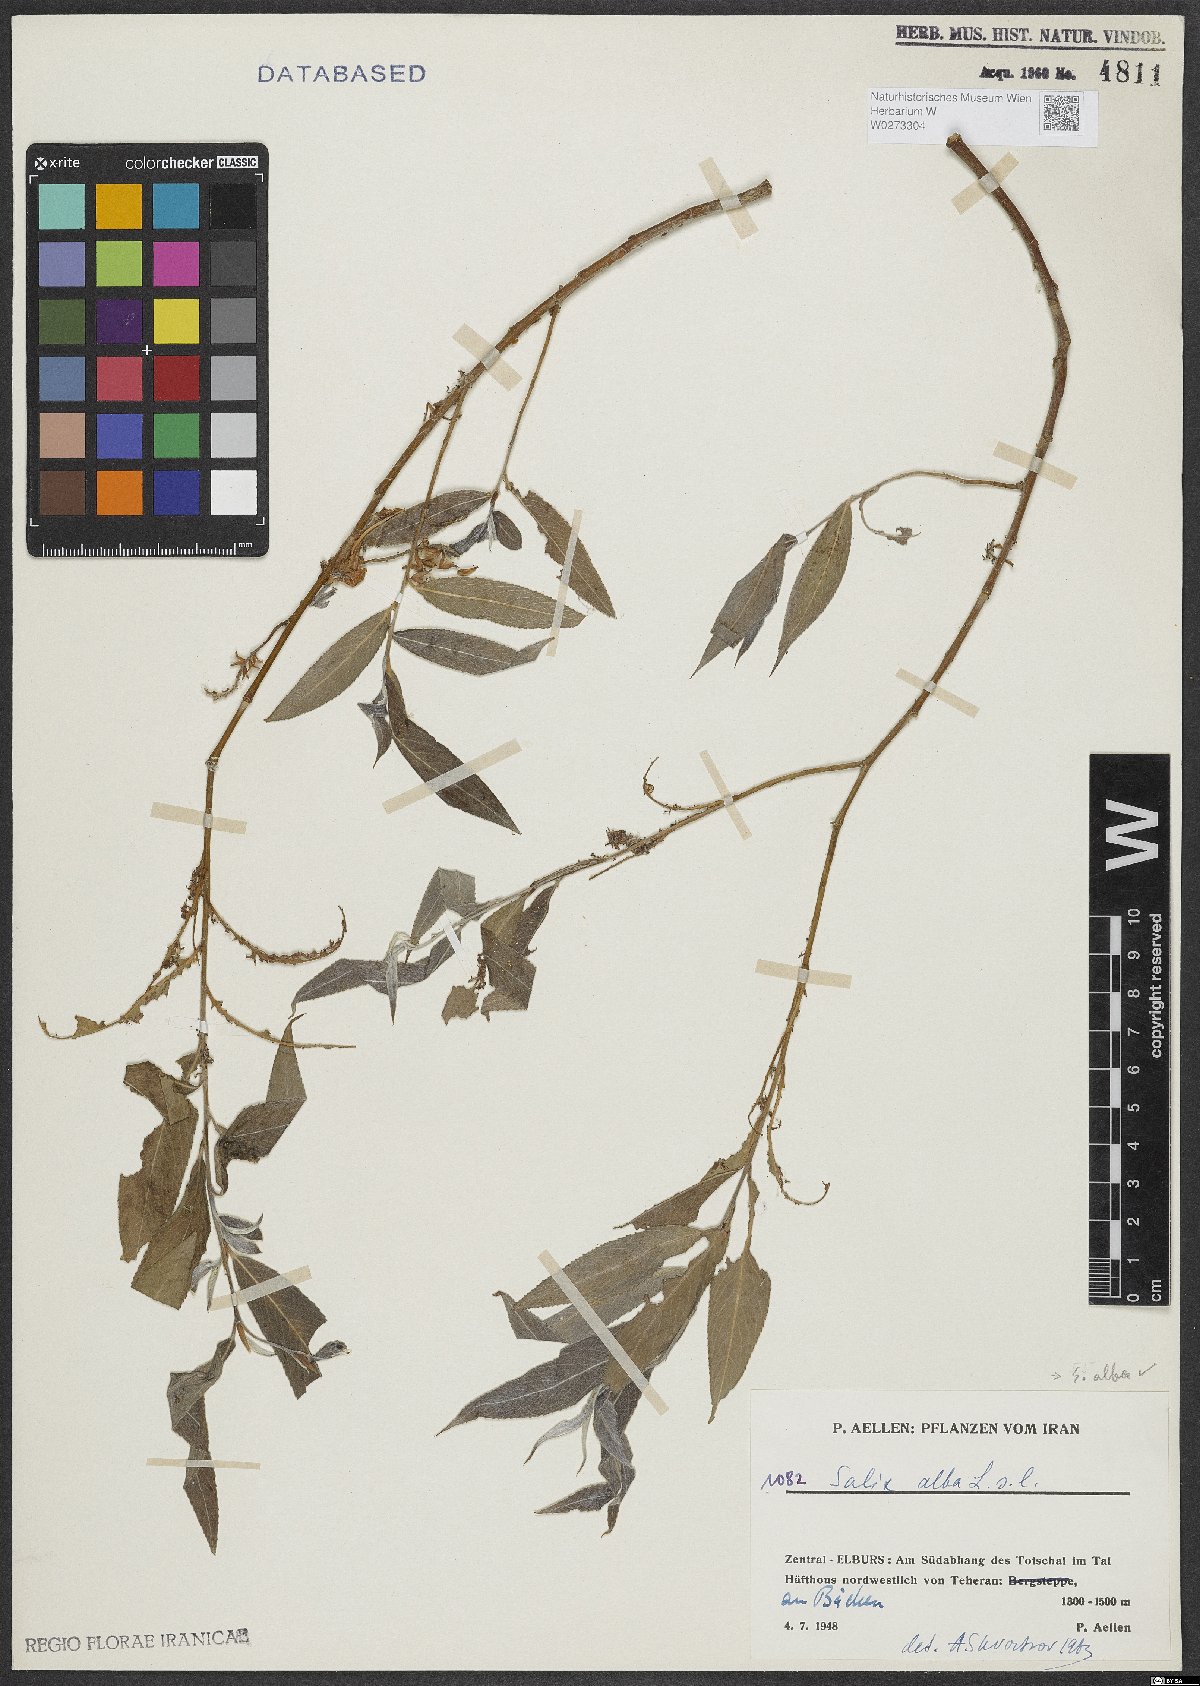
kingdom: Plantae
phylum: Tracheophyta
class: Magnoliopsida
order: Malpighiales
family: Salicaceae
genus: Salix
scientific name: Salix alba
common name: White willow
